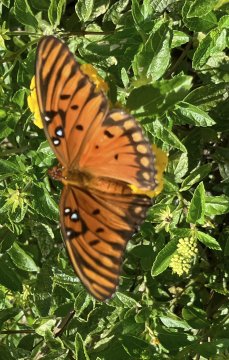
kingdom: Animalia
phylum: Arthropoda
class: Insecta
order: Lepidoptera
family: Nymphalidae
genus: Dione
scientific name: Dione vanillae
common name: Gulf Fritillary
